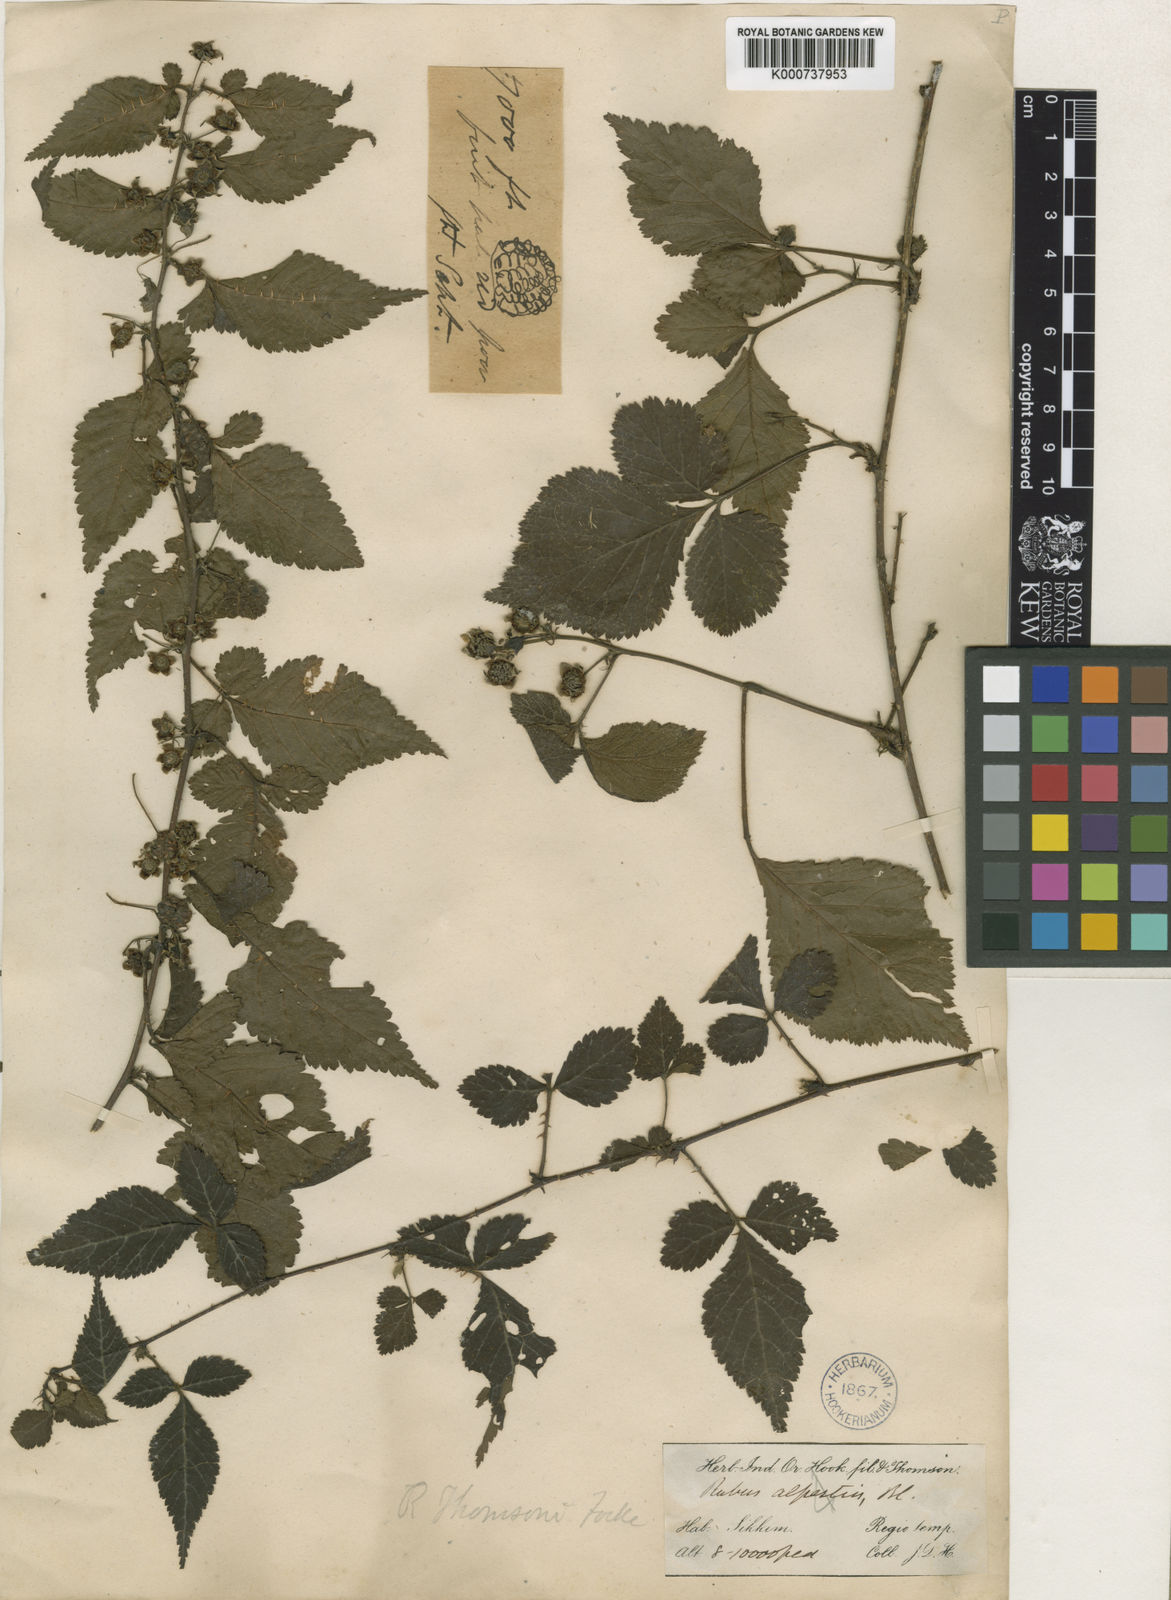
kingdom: Plantae
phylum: Tracheophyta
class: Magnoliopsida
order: Rosales
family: Rosaceae
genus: Rubus
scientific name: Rubus thomsonii
